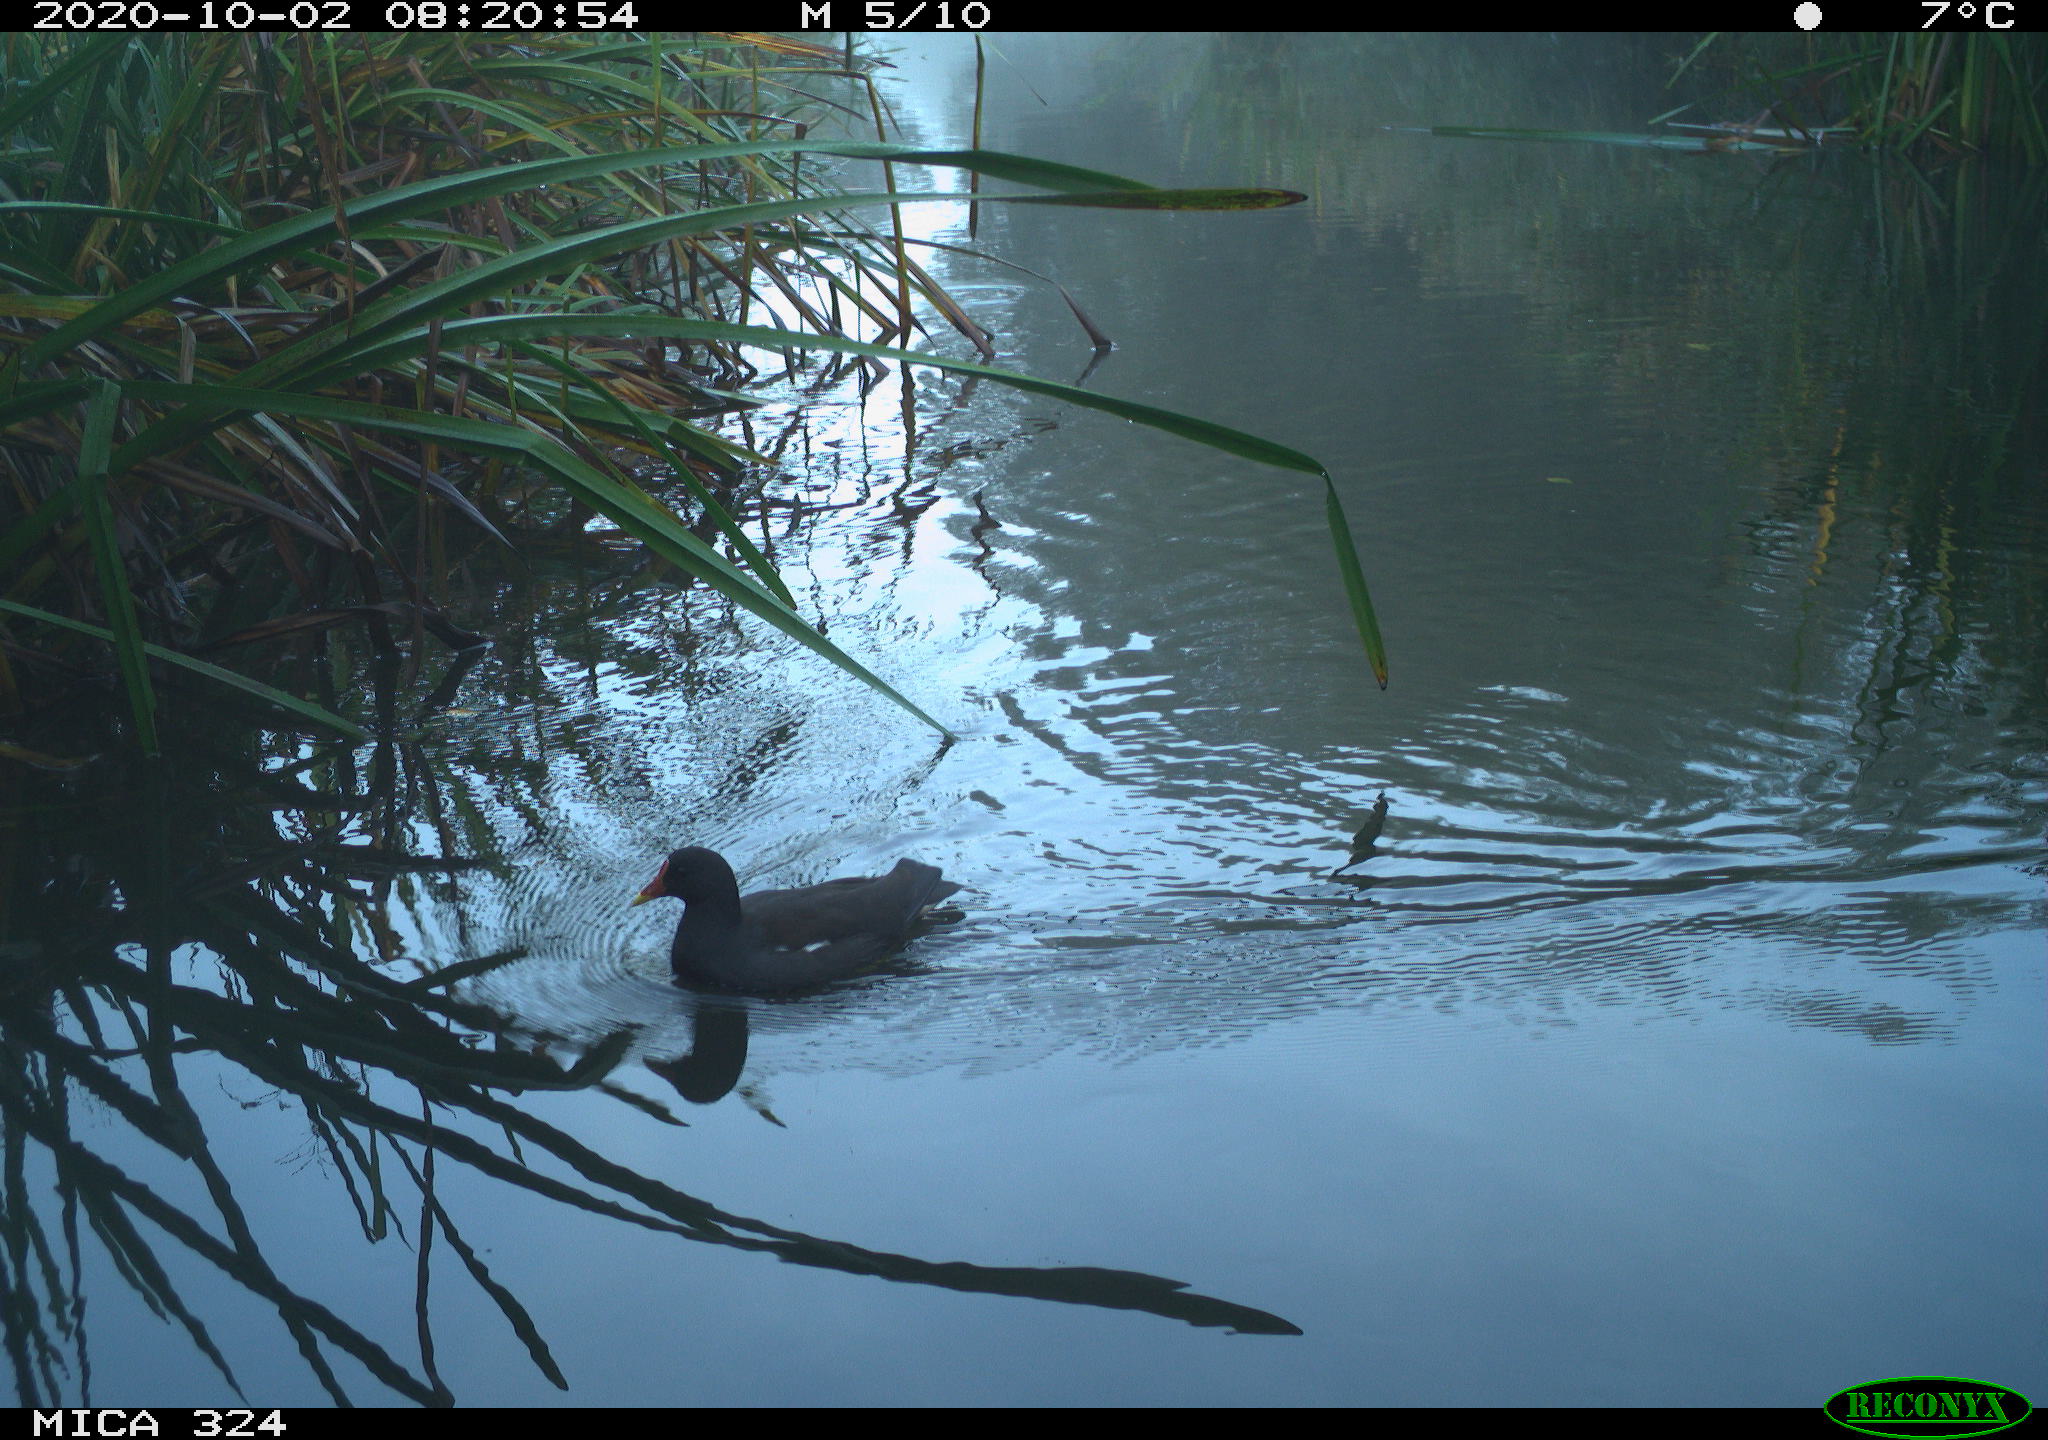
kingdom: Animalia
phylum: Chordata
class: Aves
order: Gruiformes
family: Rallidae
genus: Gallinula
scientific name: Gallinula chloropus
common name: Common moorhen
